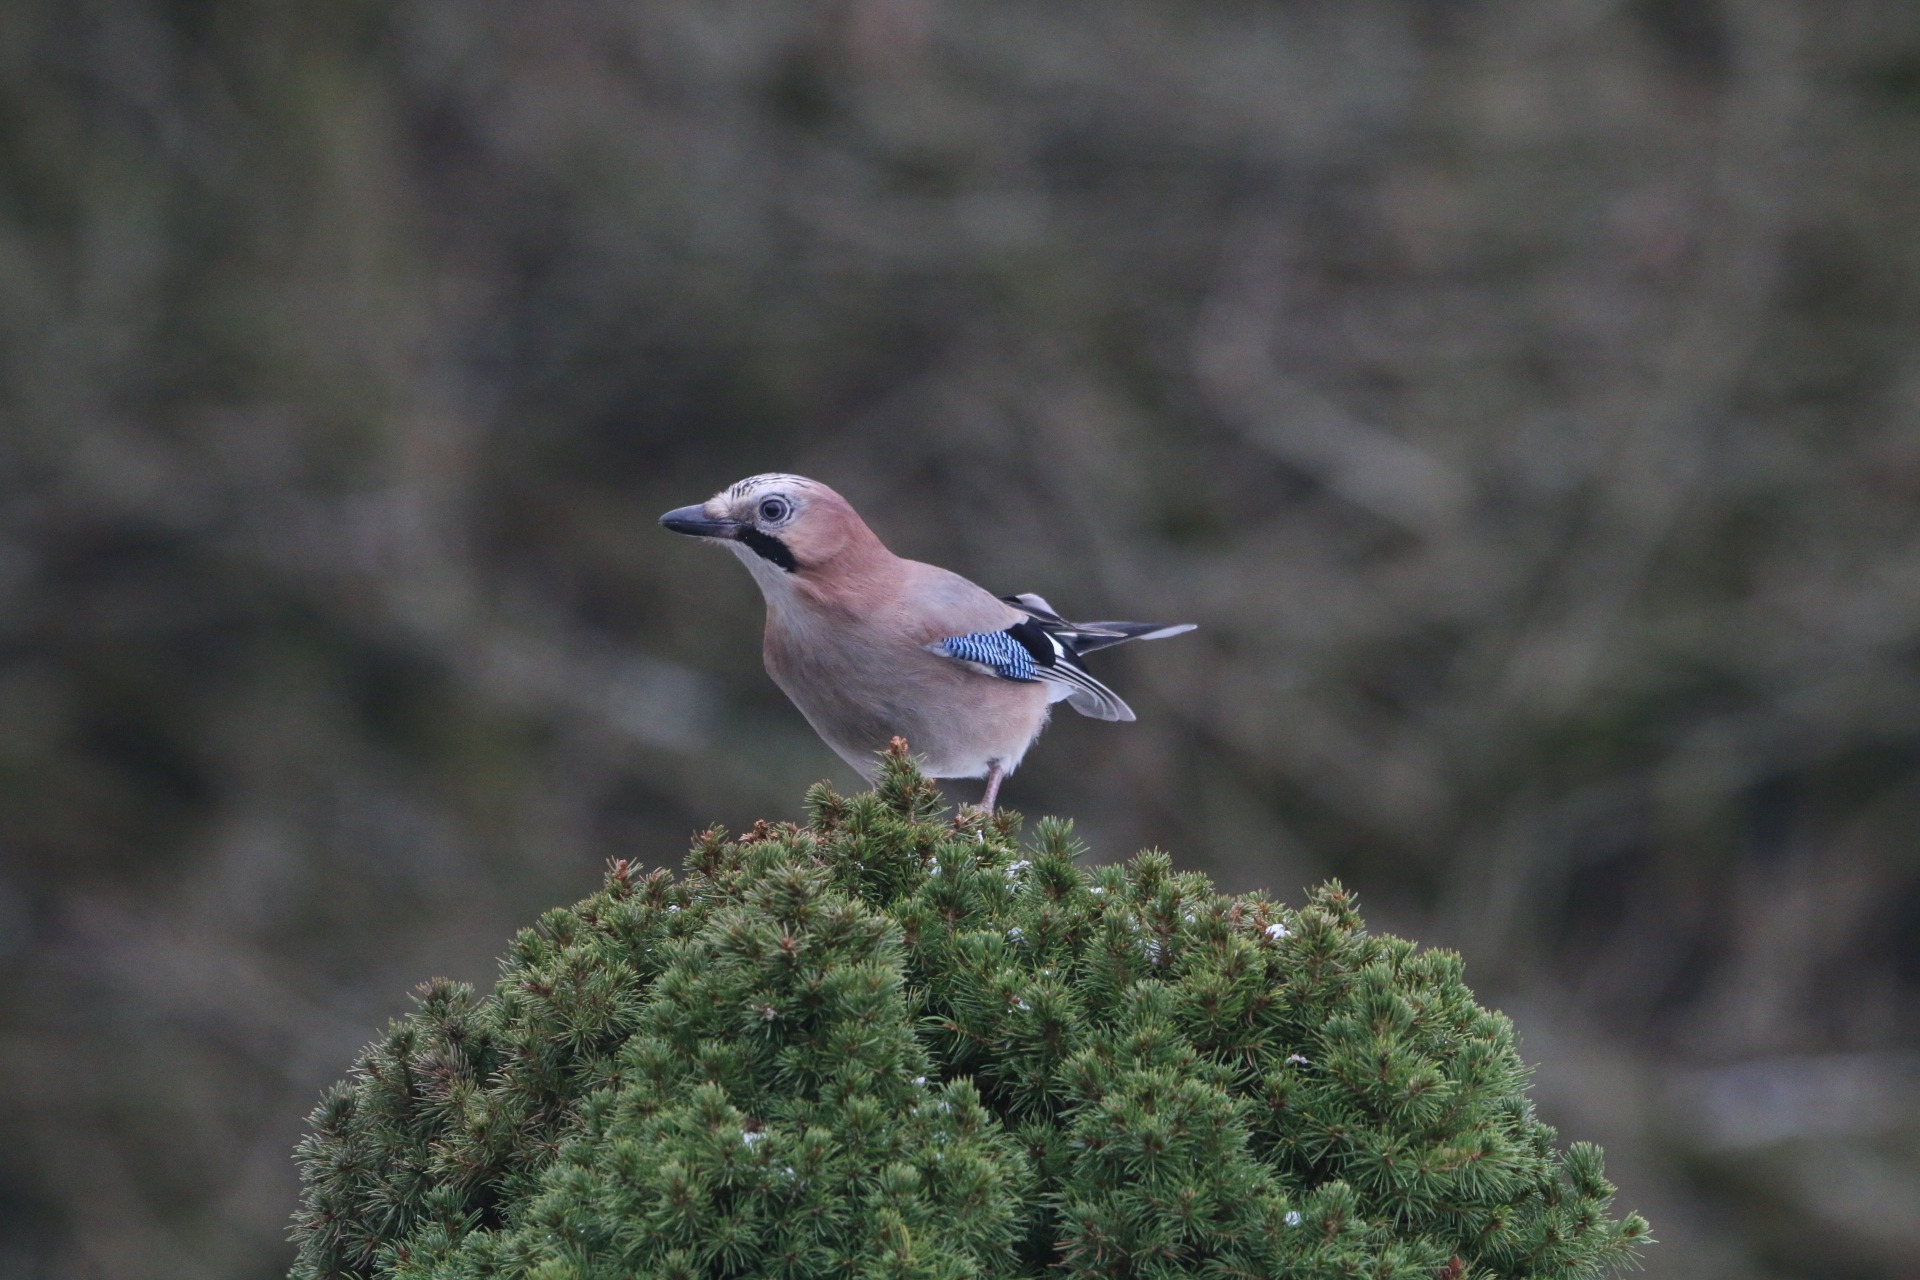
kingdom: Animalia
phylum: Chordata
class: Aves
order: Passeriformes
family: Corvidae
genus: Garrulus
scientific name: Garrulus glandarius
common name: Skovskade
